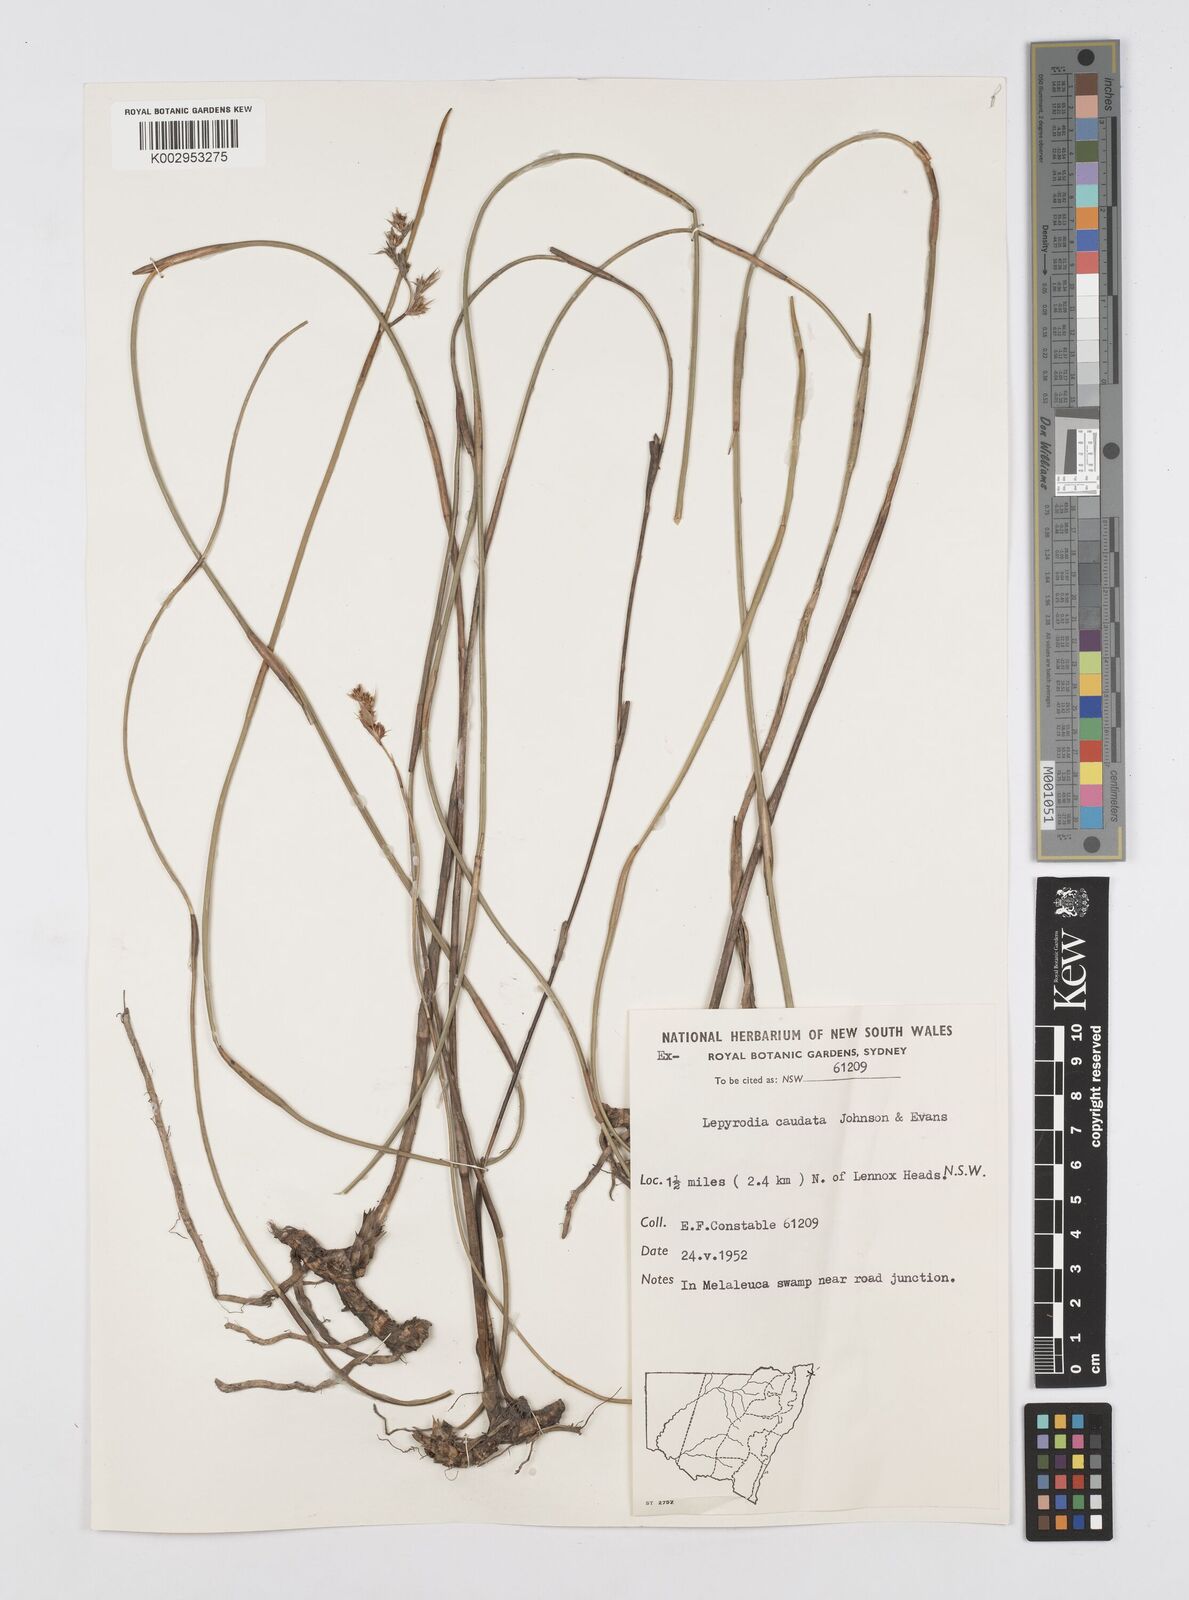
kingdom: Plantae
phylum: Tracheophyta
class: Liliopsida
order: Poales
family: Restionaceae
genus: Sporadanthus
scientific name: Sporadanthus caudatus
